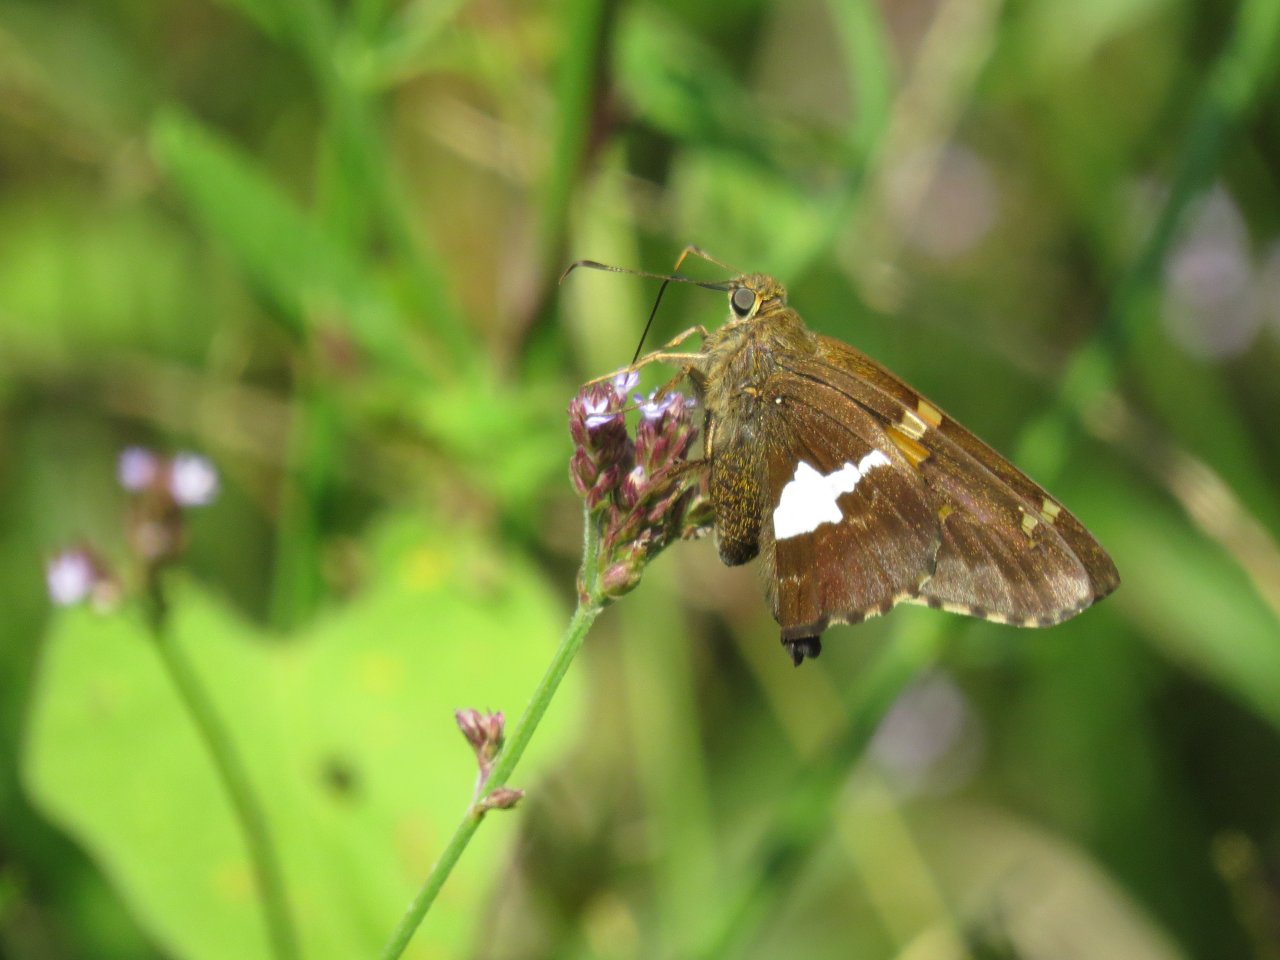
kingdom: Animalia
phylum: Arthropoda
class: Insecta
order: Lepidoptera
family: Hesperiidae
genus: Epargyreus
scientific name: Epargyreus clarus
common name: Silver-spotted Skipper
